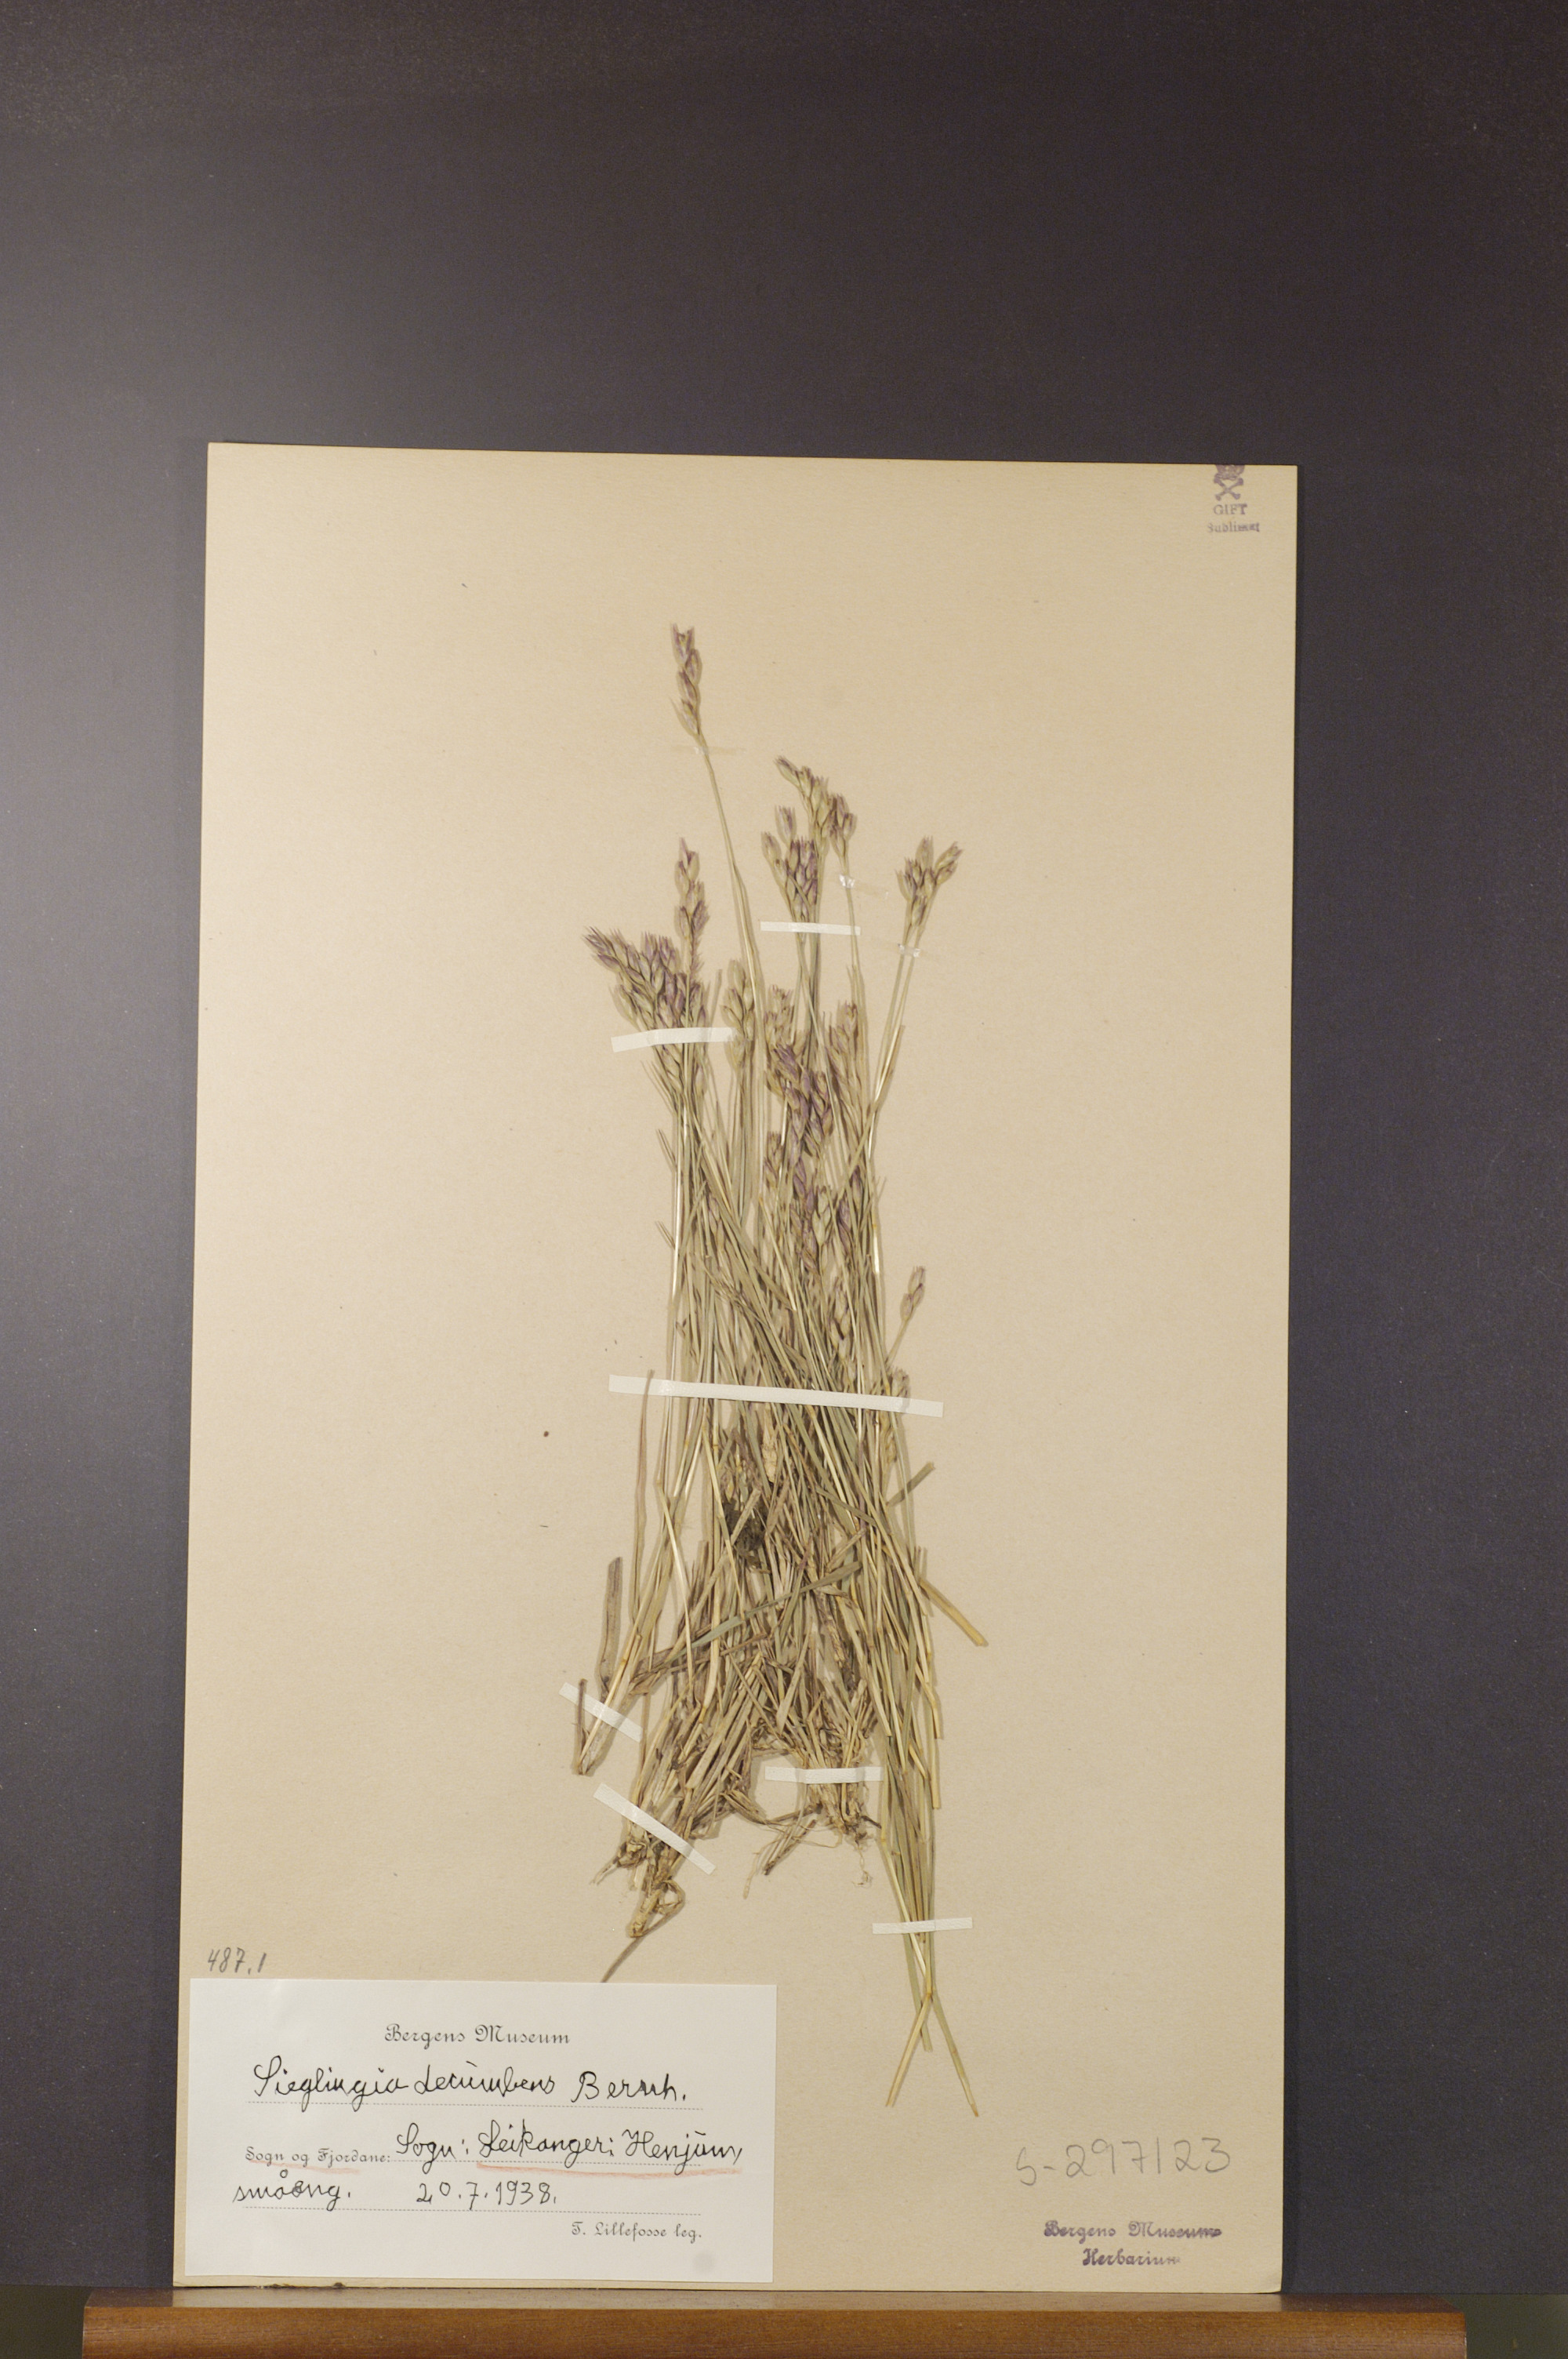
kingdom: Plantae
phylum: Tracheophyta
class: Liliopsida
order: Poales
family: Poaceae
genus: Danthonia
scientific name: Danthonia decumbens
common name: Common heathgrass
